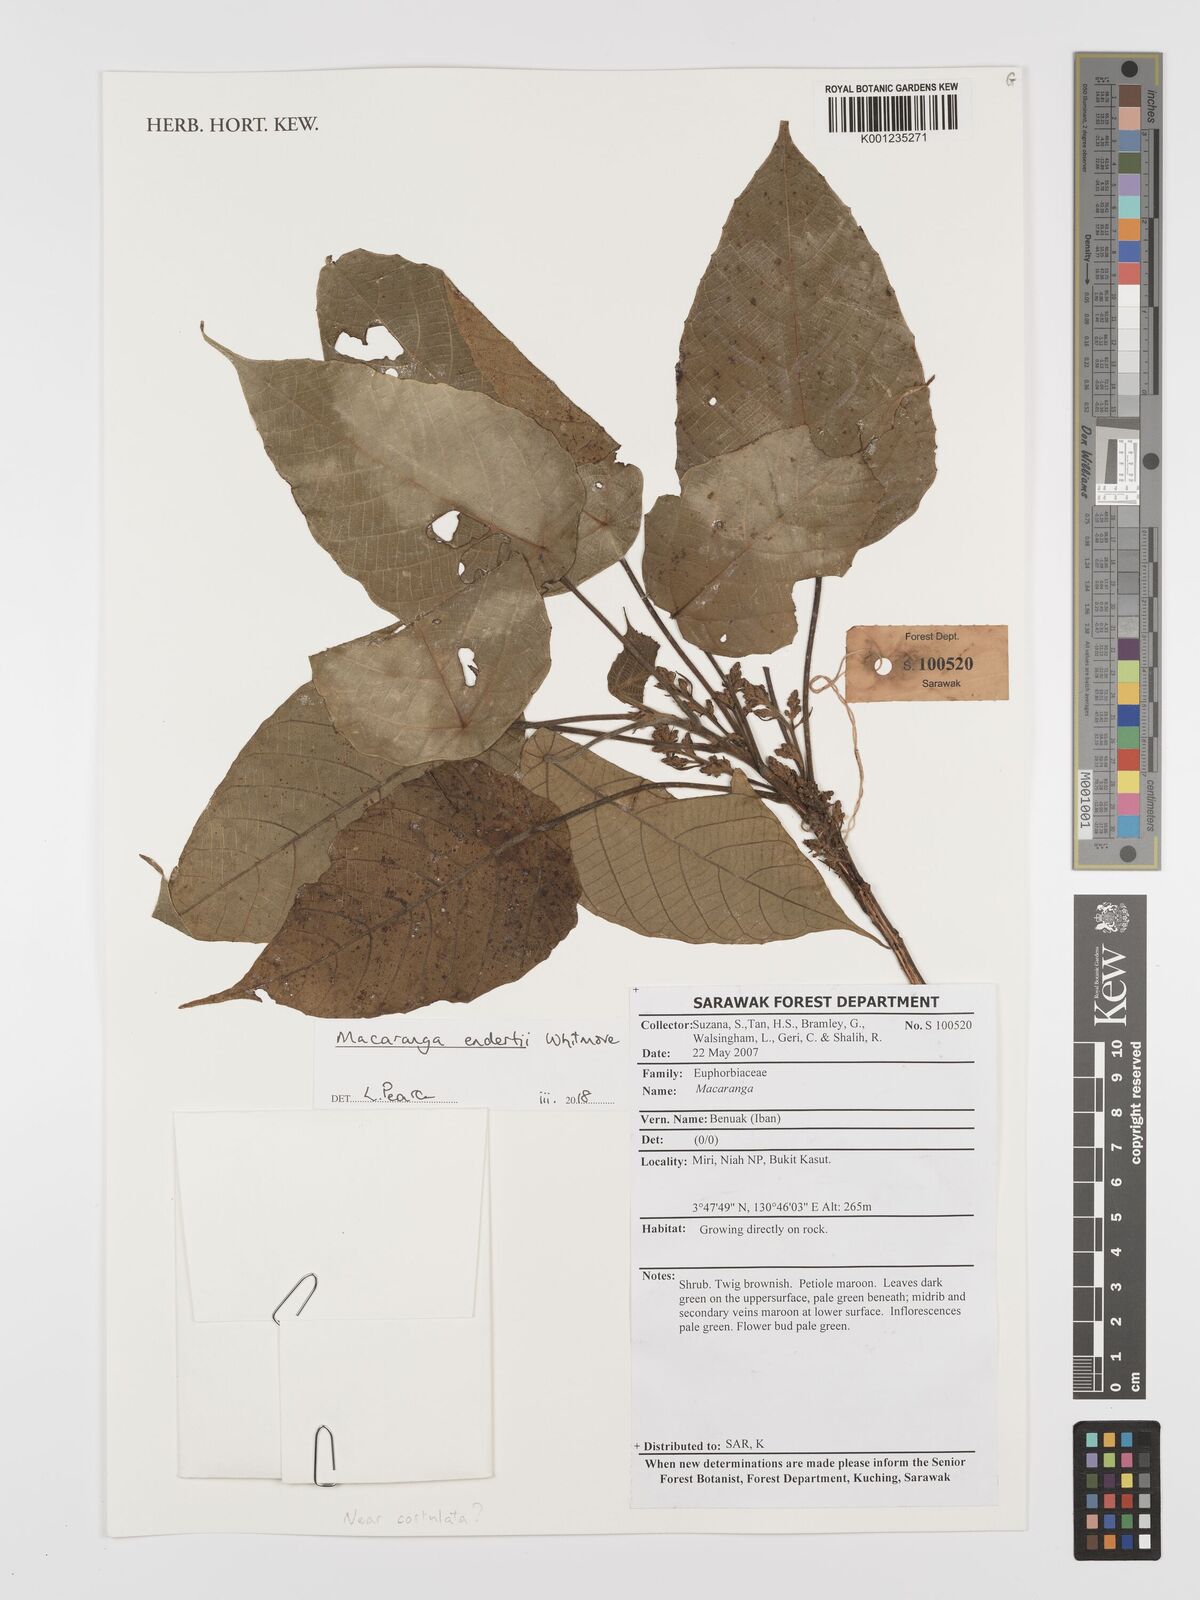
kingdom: Plantae
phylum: Tracheophyta
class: Magnoliopsida
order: Malpighiales
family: Euphorbiaceae
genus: Macaranga
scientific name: Macaranga endertii
